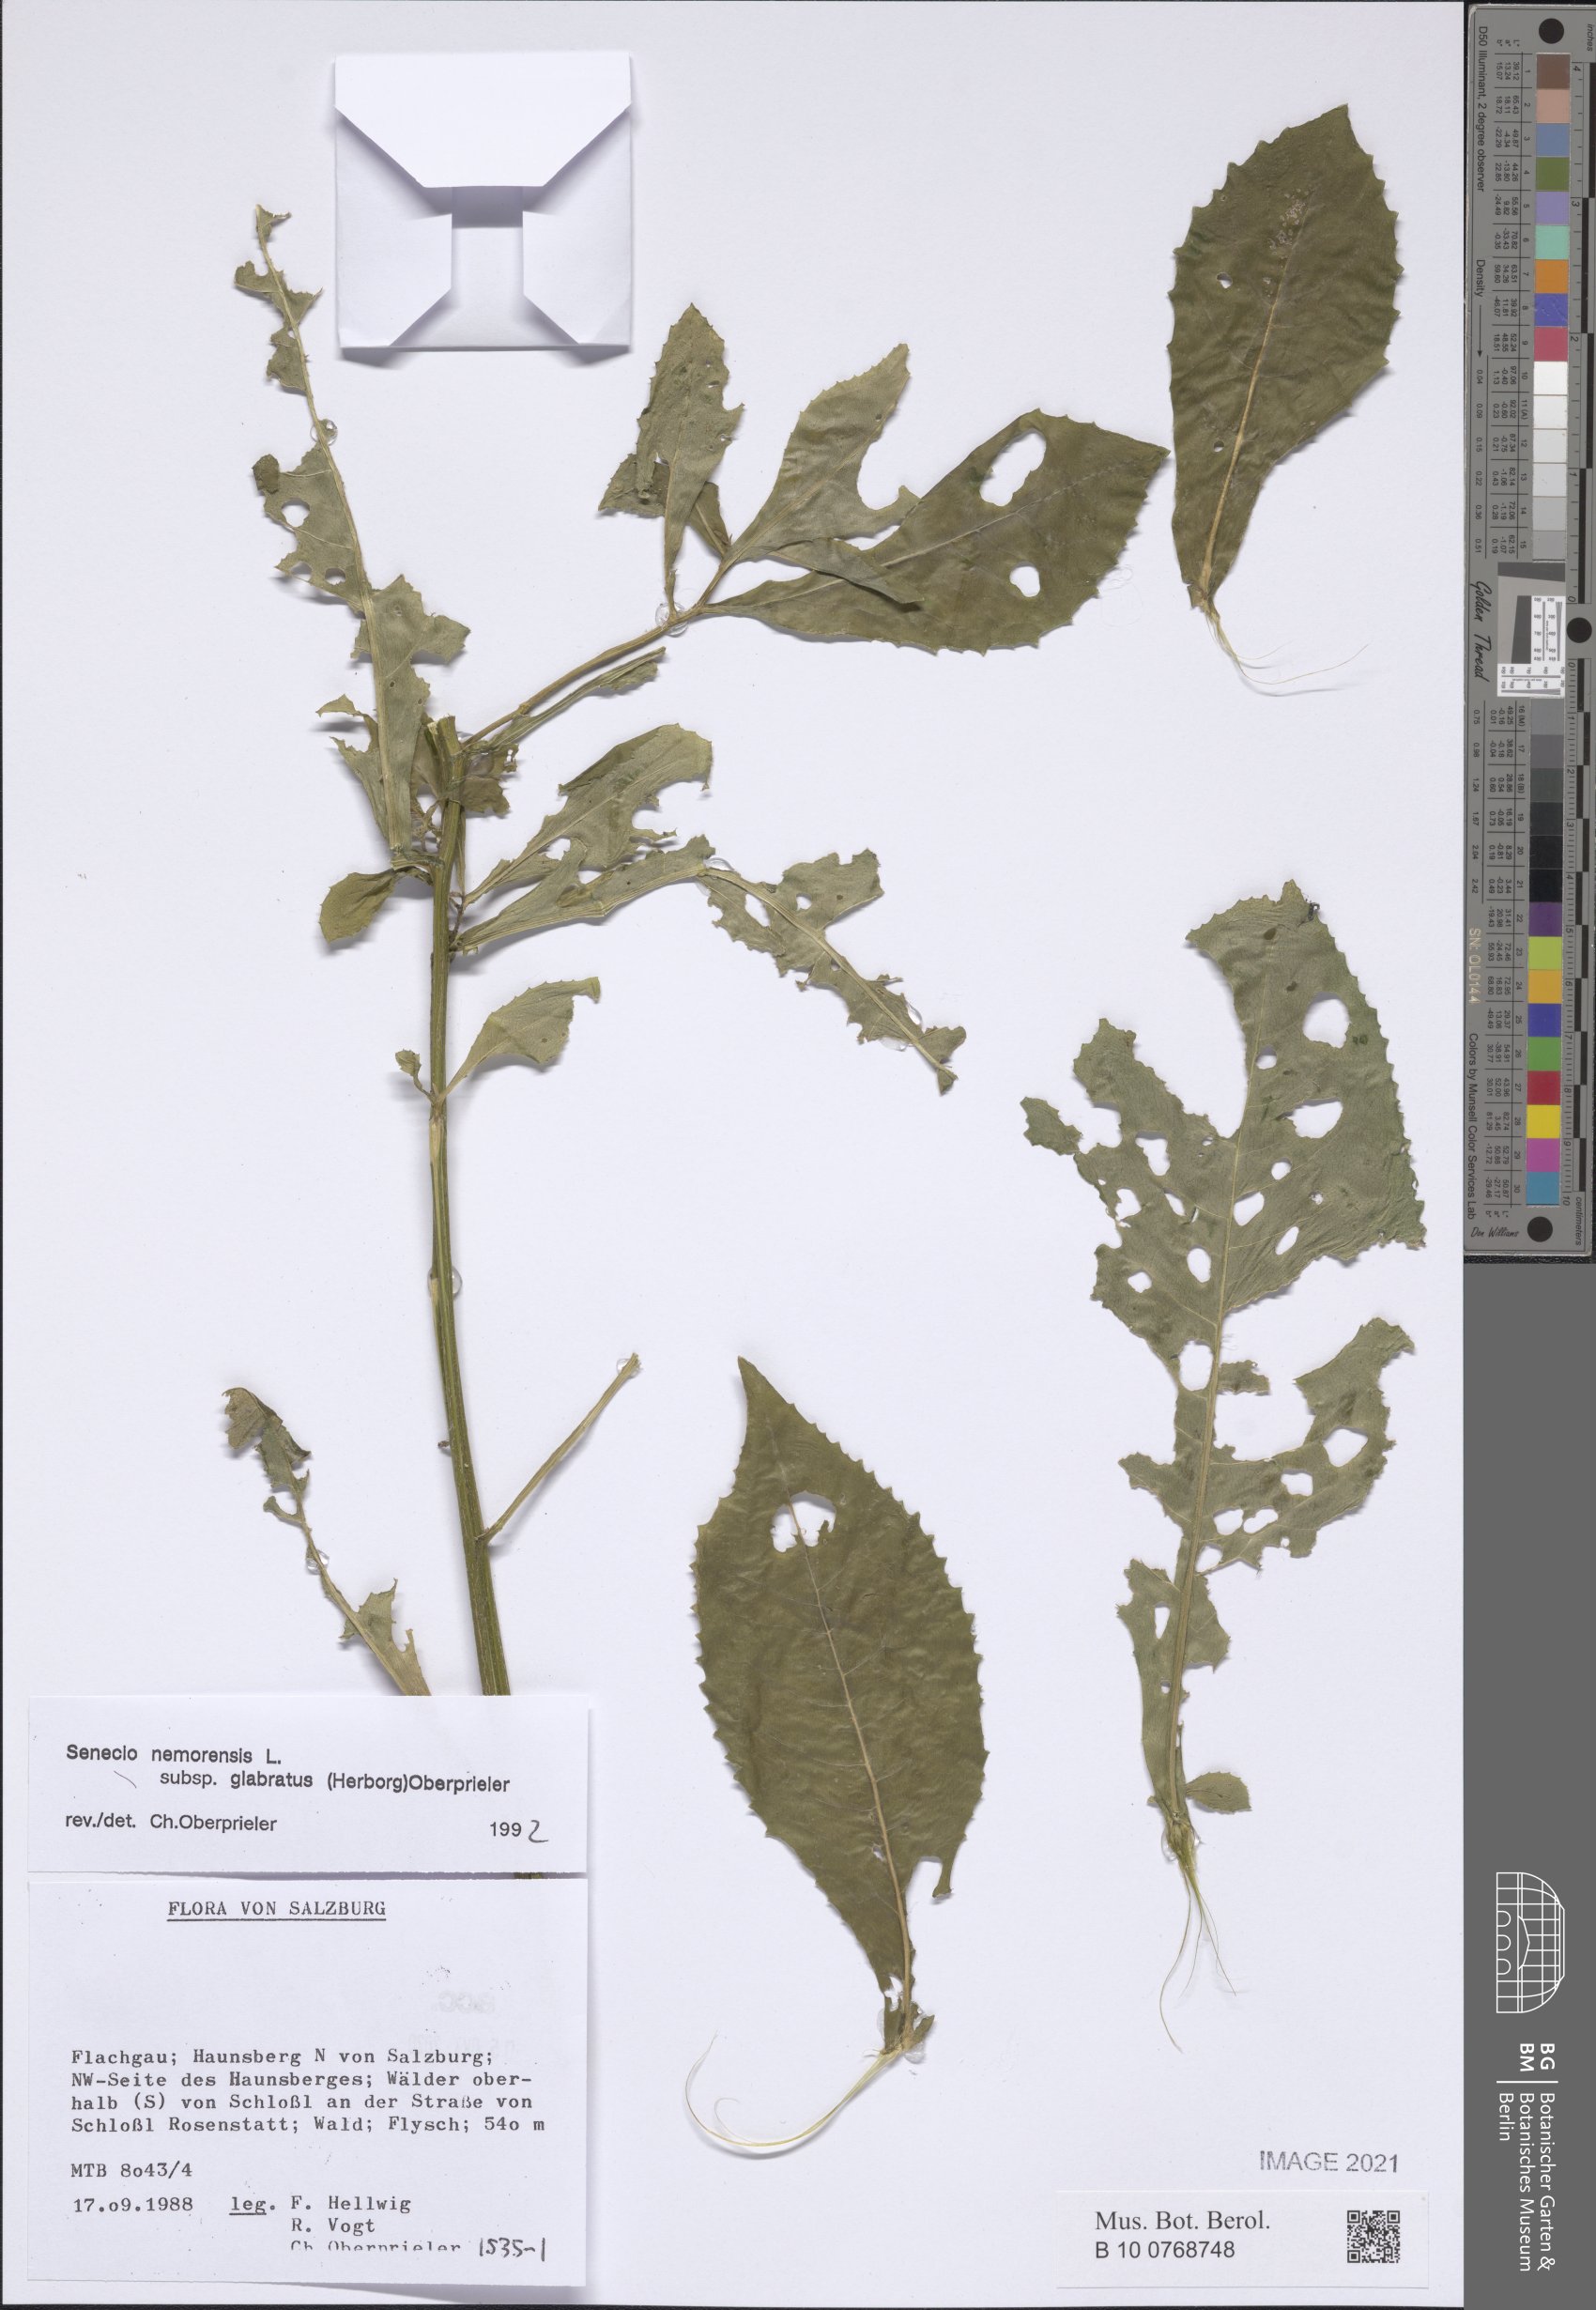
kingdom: Plantae
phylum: Tracheophyta
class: Magnoliopsida
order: Asterales
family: Asteraceae
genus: Senecio
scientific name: Senecio germanicus
